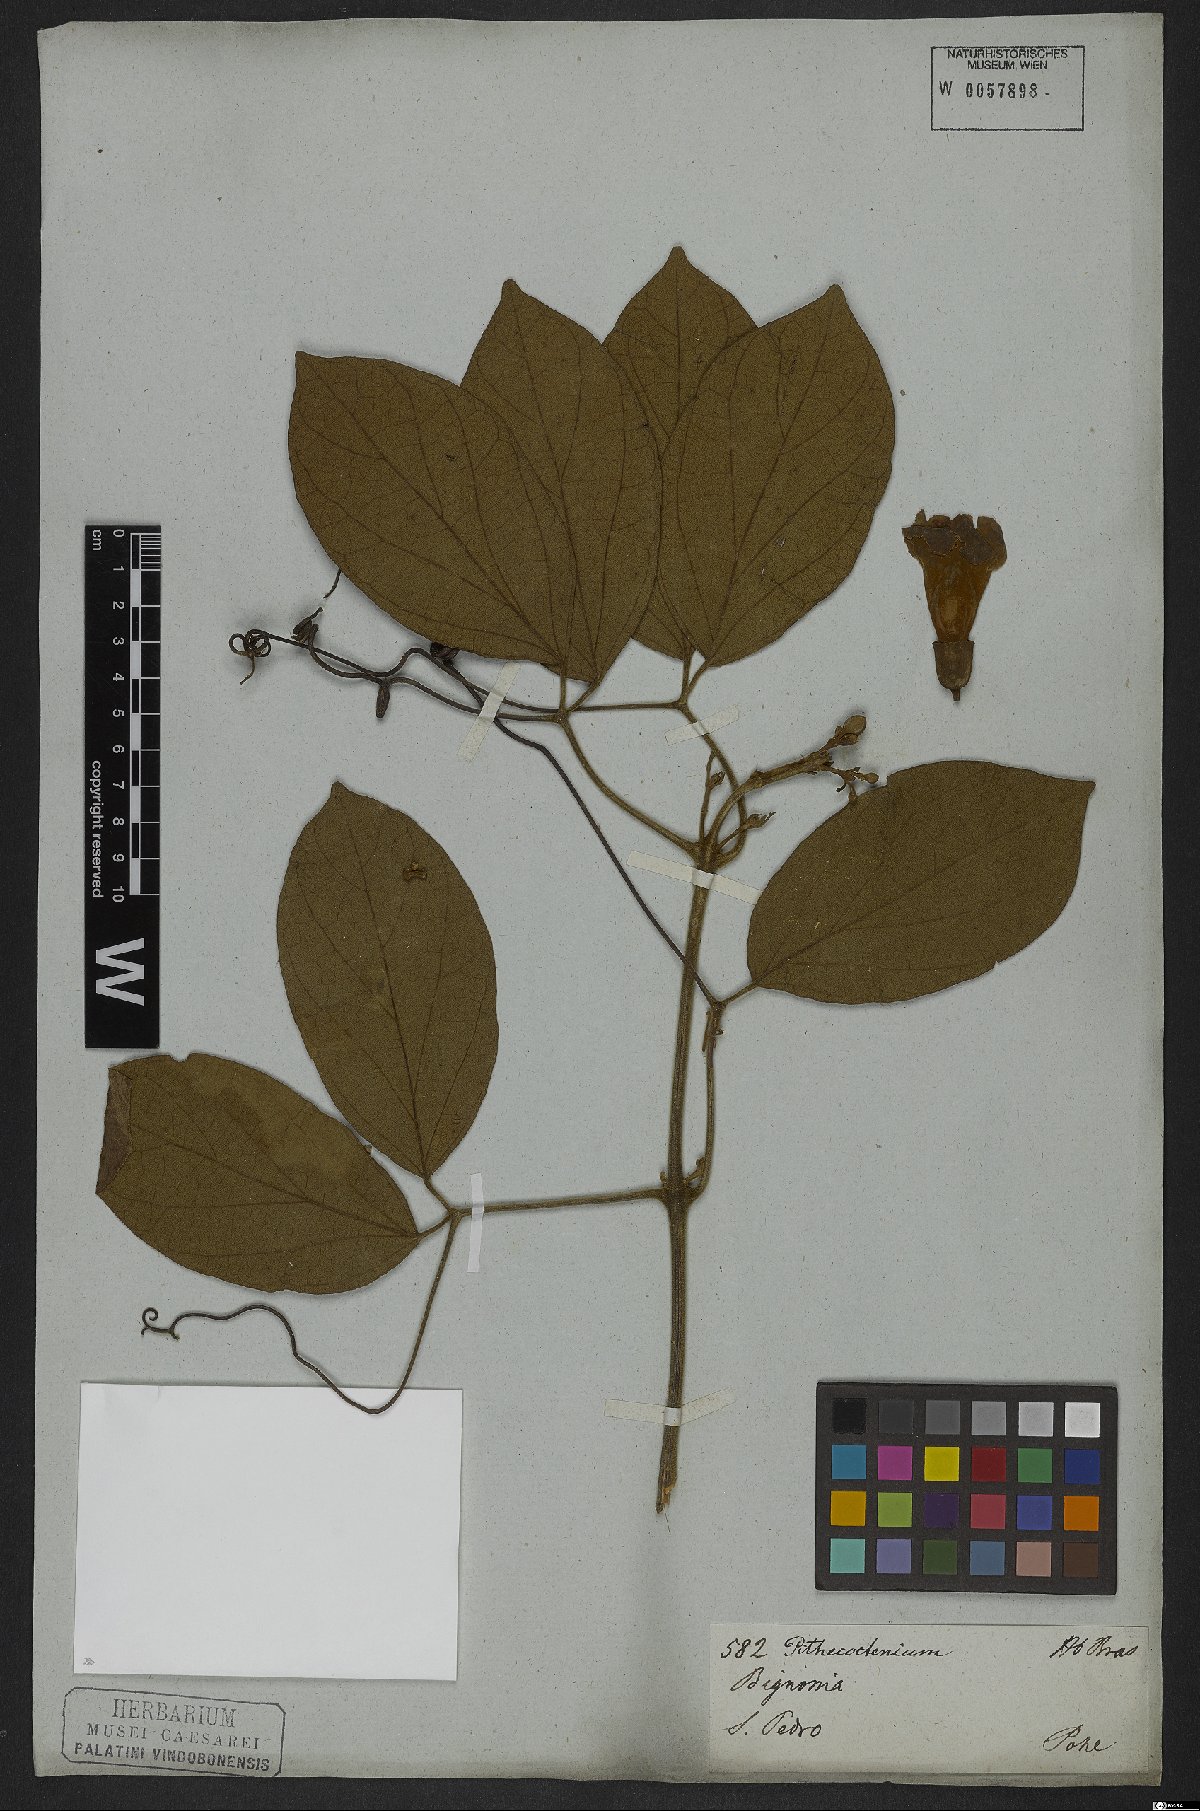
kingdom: Plantae
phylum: Tracheophyta
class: Magnoliopsida
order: Lamiales
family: Bignoniaceae
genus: Amphilophium
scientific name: Amphilophium mansoanum
